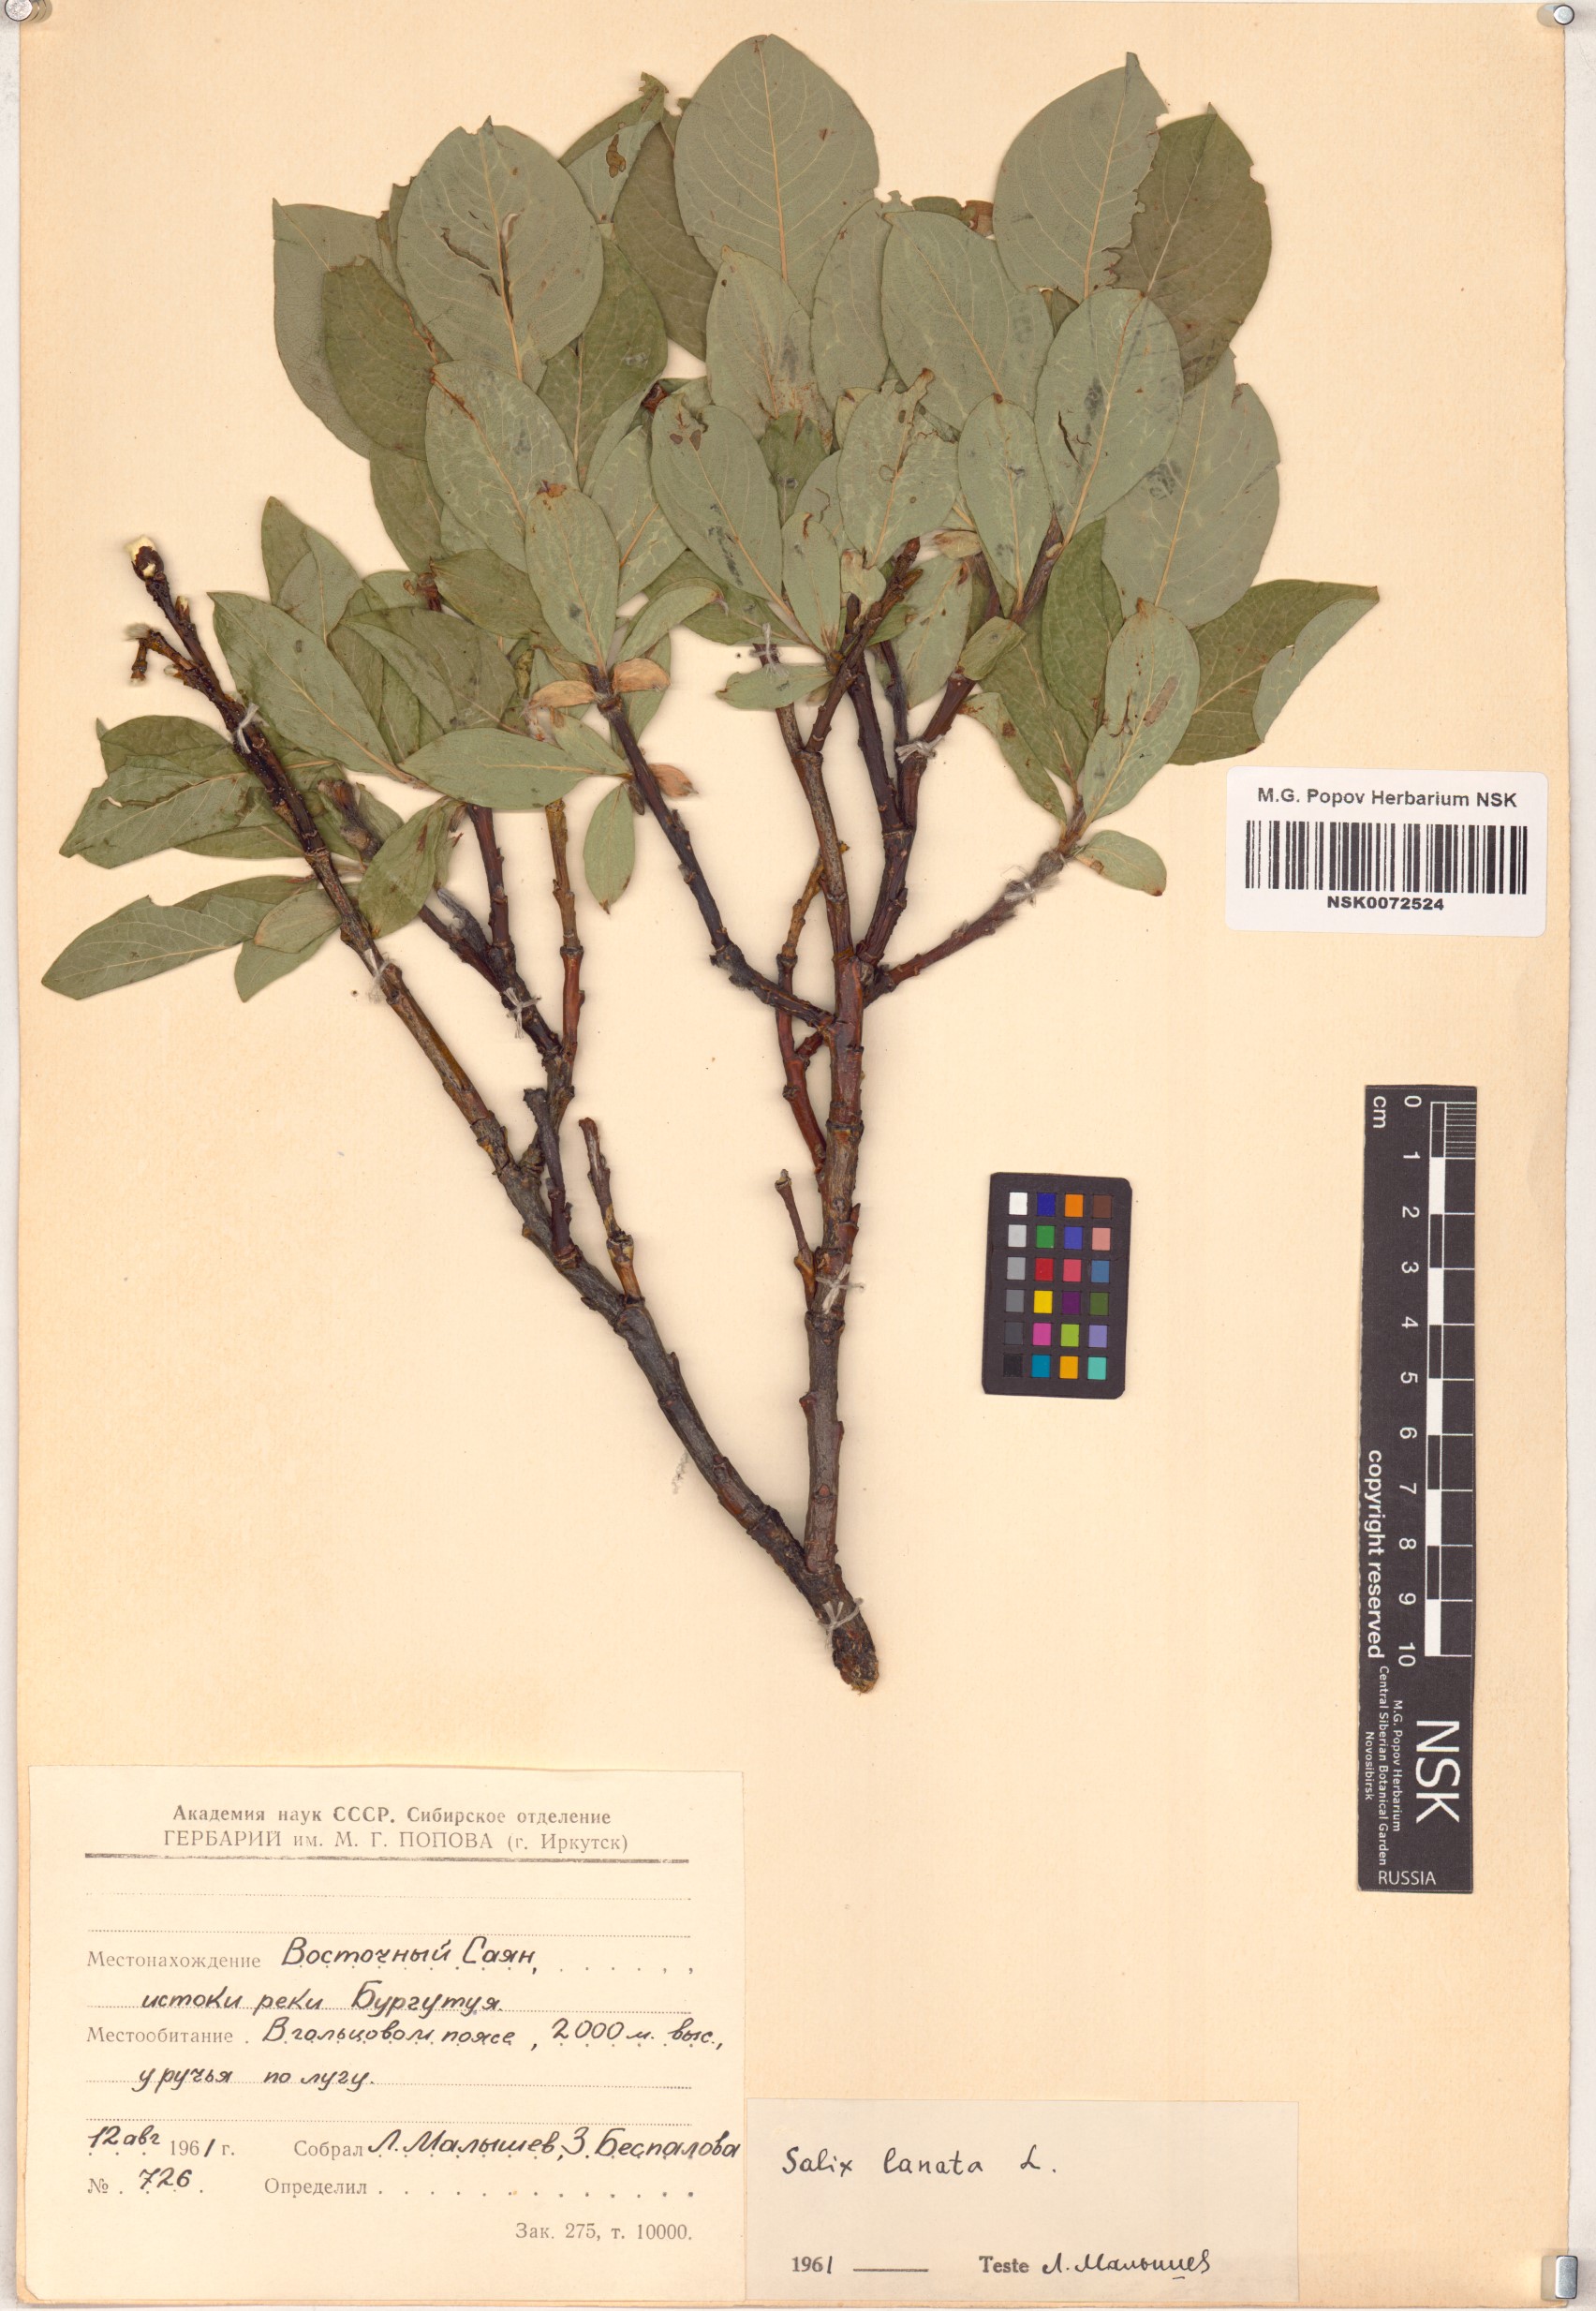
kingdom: Plantae
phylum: Tracheophyta
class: Magnoliopsida
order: Malpighiales
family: Salicaceae
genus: Salix
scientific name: Salix lanata
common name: Woolly willow
